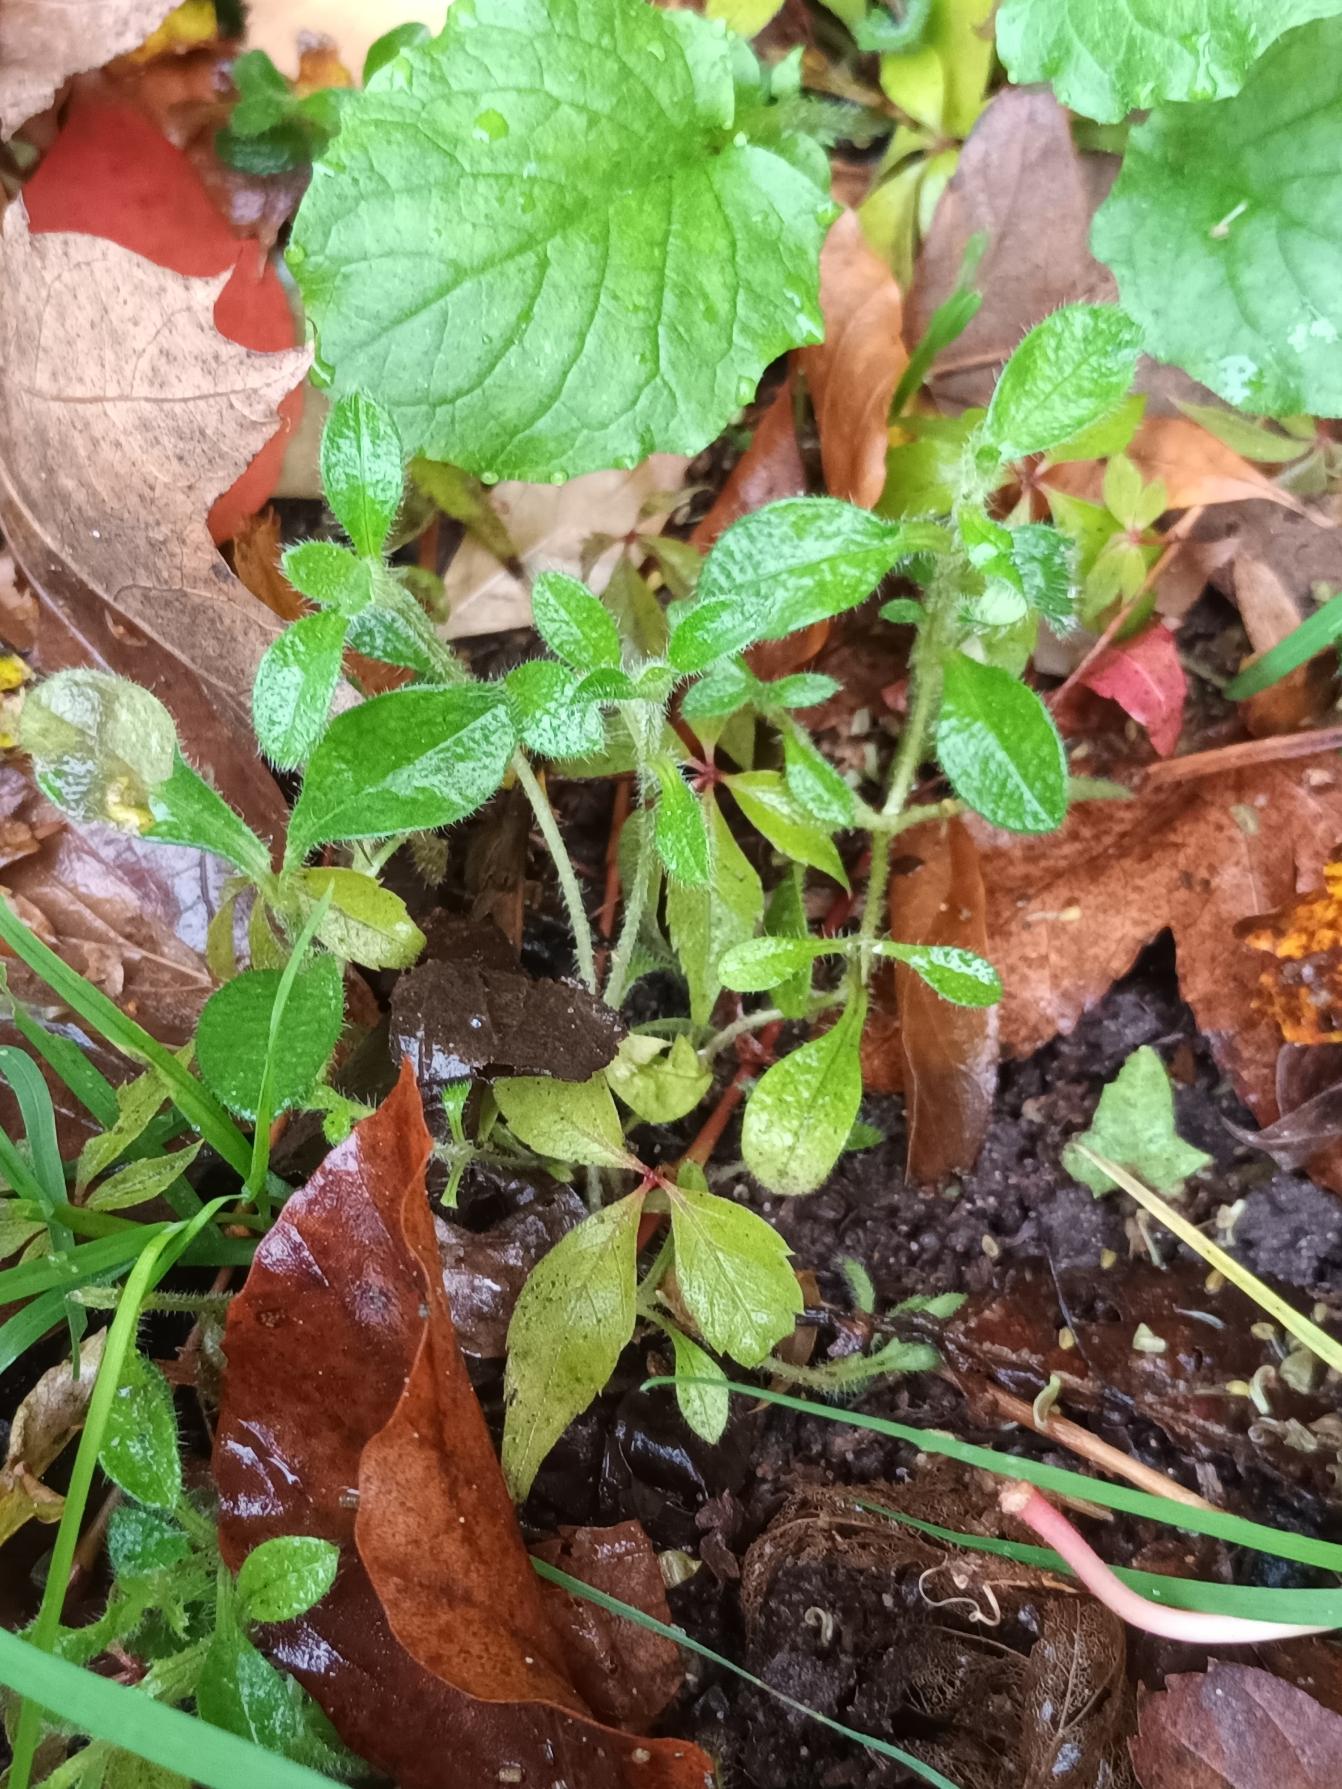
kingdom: Plantae
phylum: Tracheophyta
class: Magnoliopsida
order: Caryophyllales
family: Caryophyllaceae
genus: Cerastium
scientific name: Cerastium fontanum
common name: Almindelig hønsetarm
